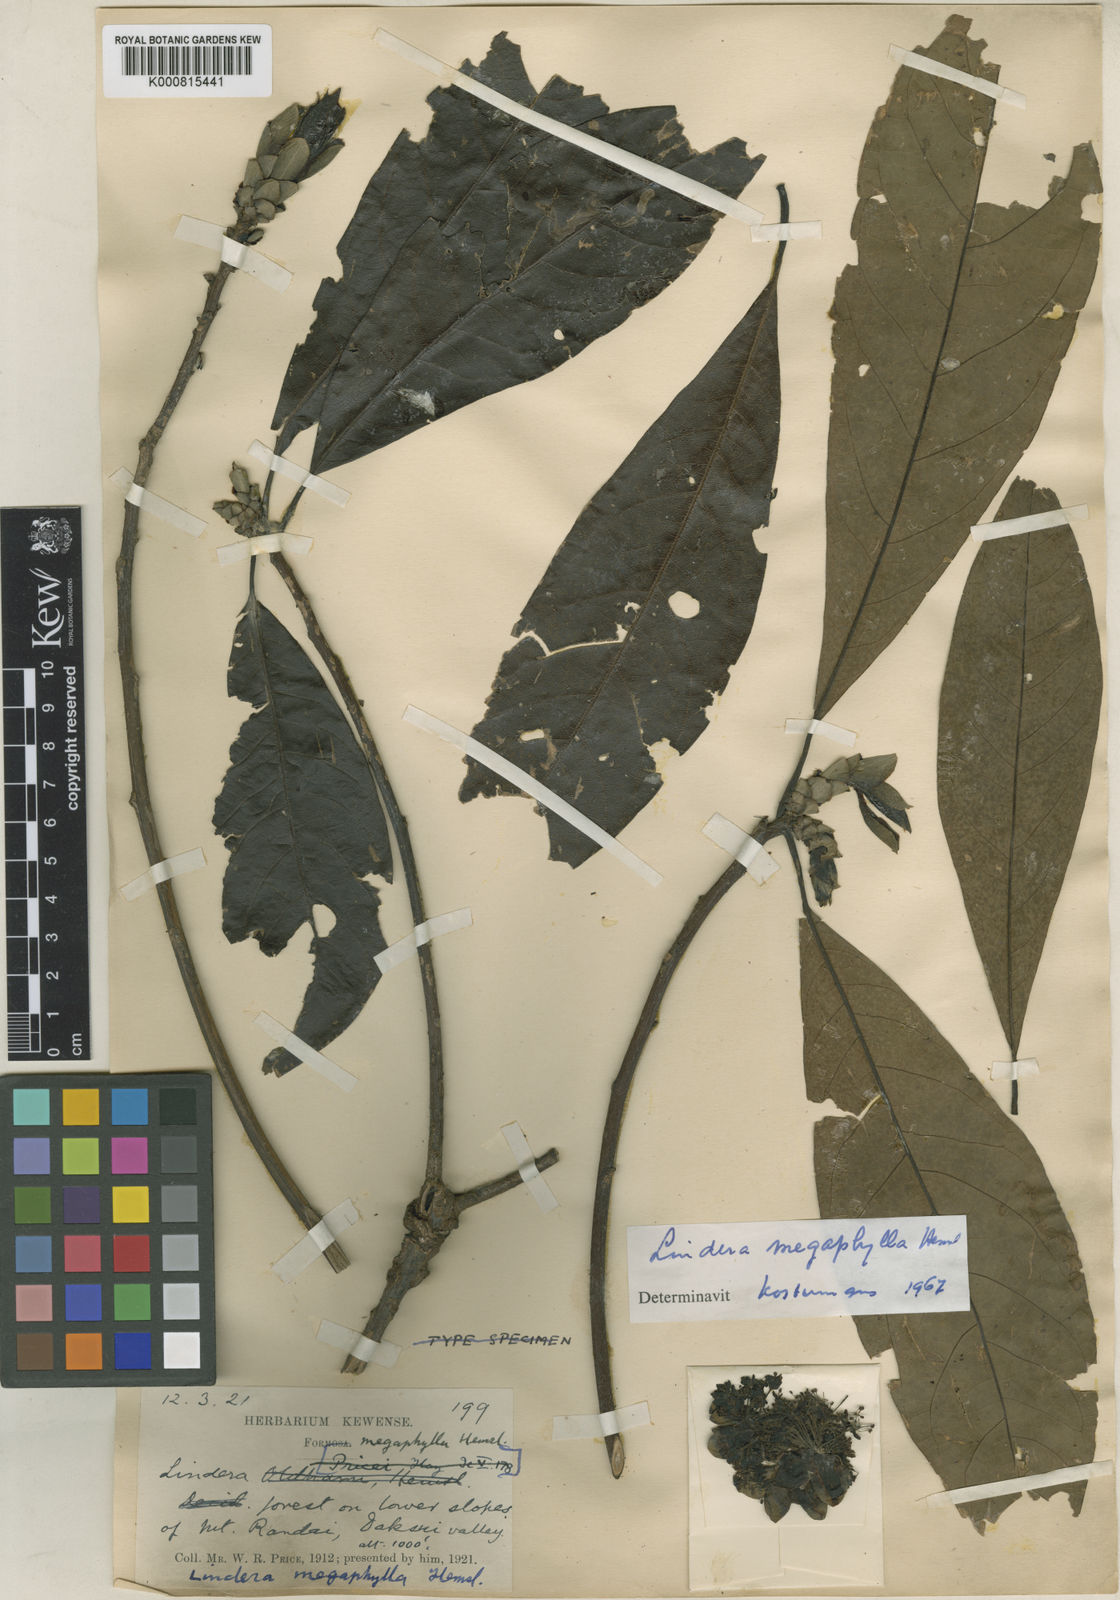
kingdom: Plantae
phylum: Tracheophyta
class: Magnoliopsida
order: Laurales
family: Lauraceae
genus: Lindera
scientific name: Lindera megaphylla
